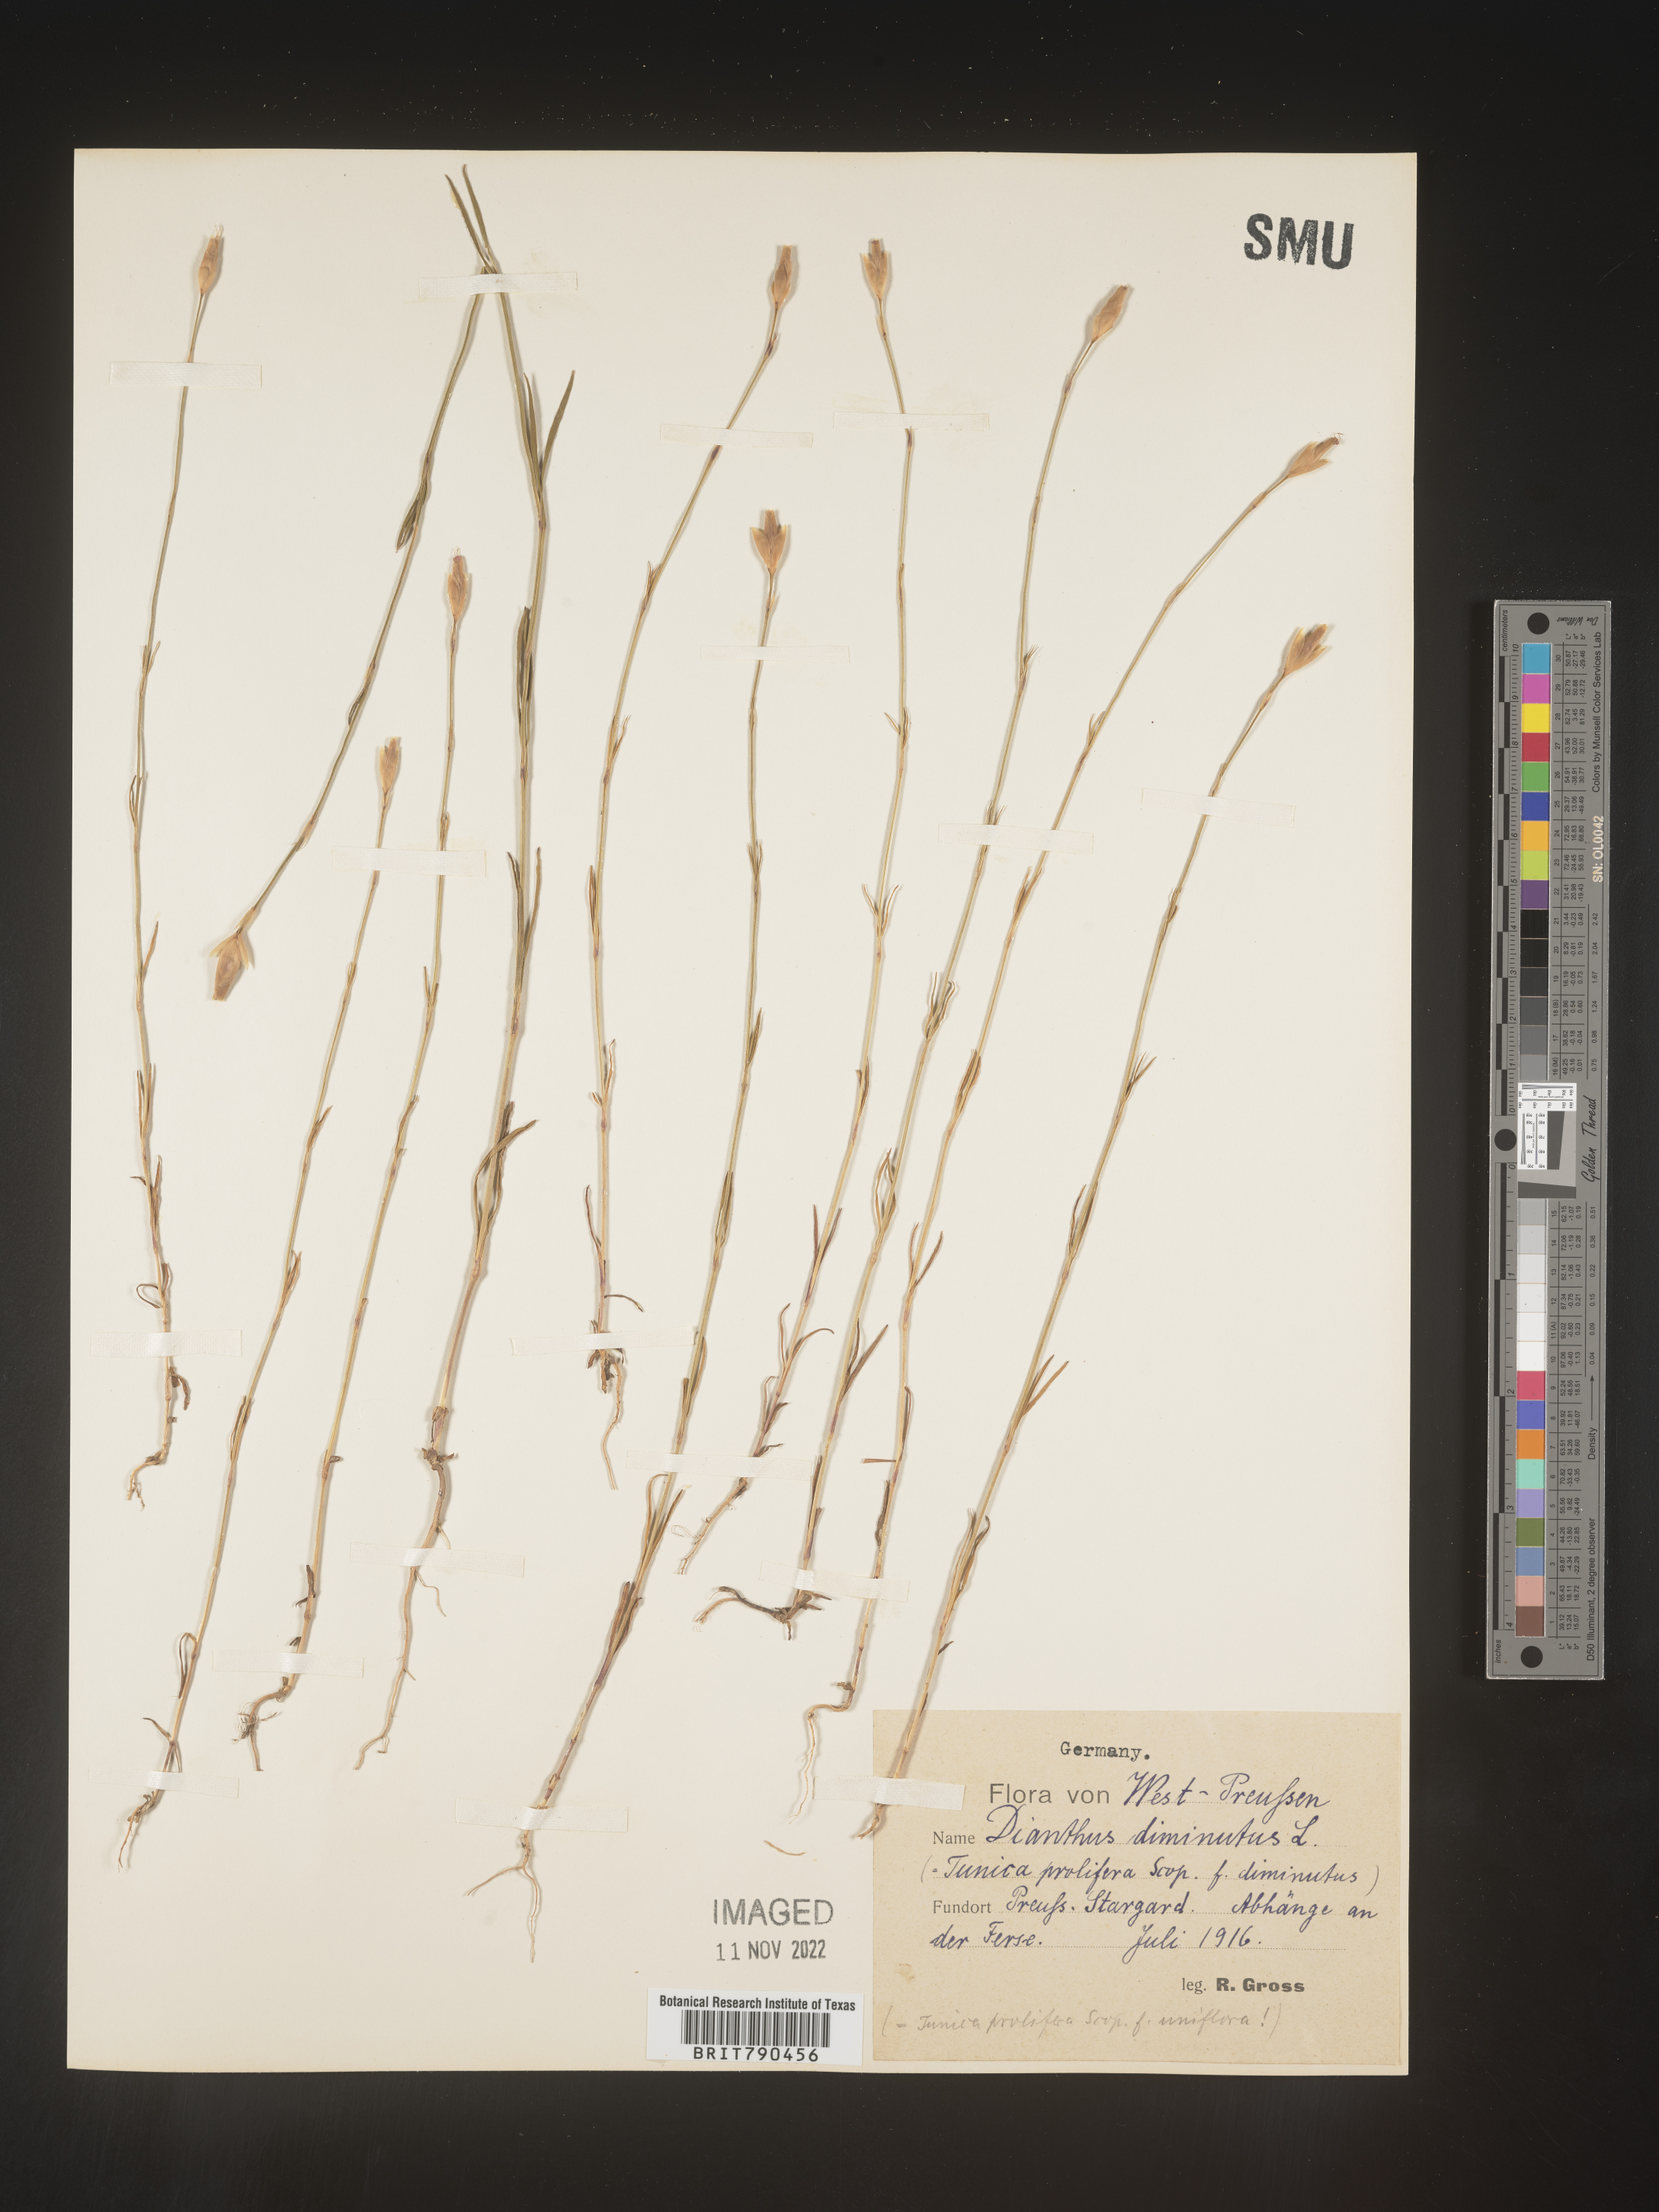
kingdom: Plantae
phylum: Tracheophyta
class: Magnoliopsida
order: Caryophyllales
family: Caryophyllaceae
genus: Dianthus
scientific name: Dianthus
